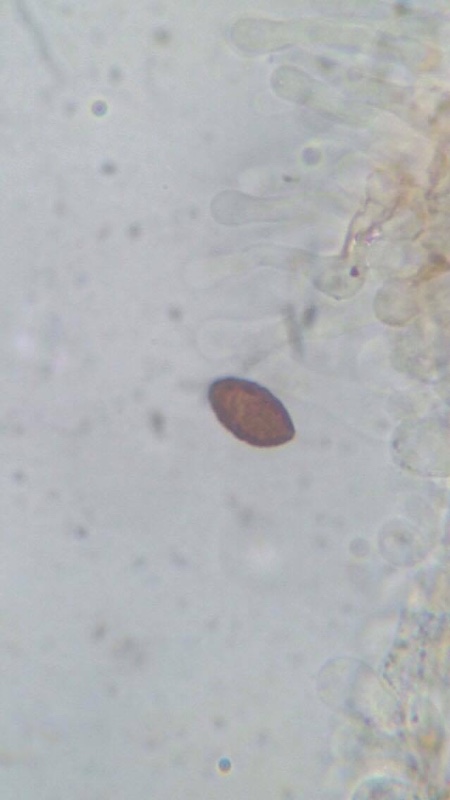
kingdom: Fungi
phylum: Basidiomycota
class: Agaricomycetes
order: Agaricales
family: Bolbitiaceae
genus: Panaeolina
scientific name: Panaeolina foenisecii
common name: høslætsvamp
